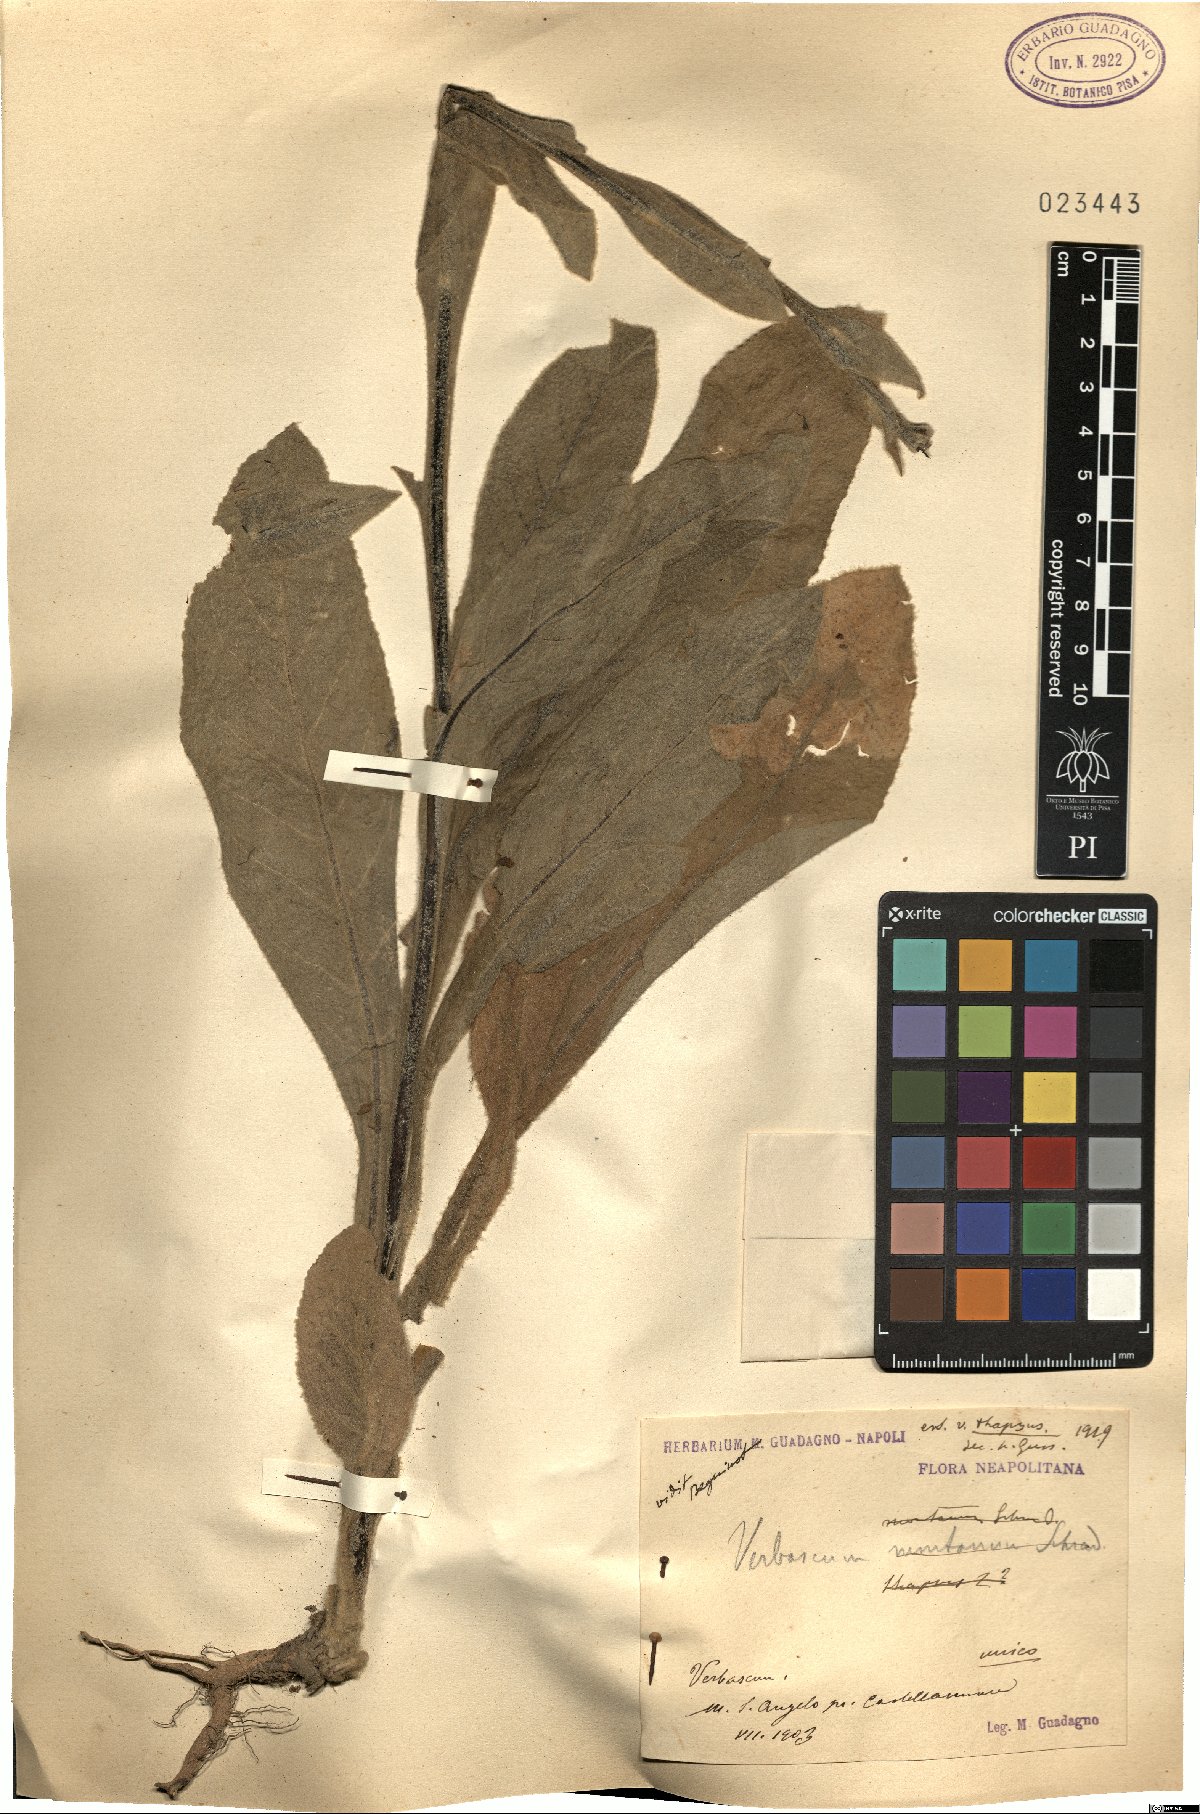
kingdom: Plantae
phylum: Tracheophyta
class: Magnoliopsida
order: Lamiales
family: Scrophulariaceae
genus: Verbascum
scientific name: Verbascum thapsus
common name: Common mullein
